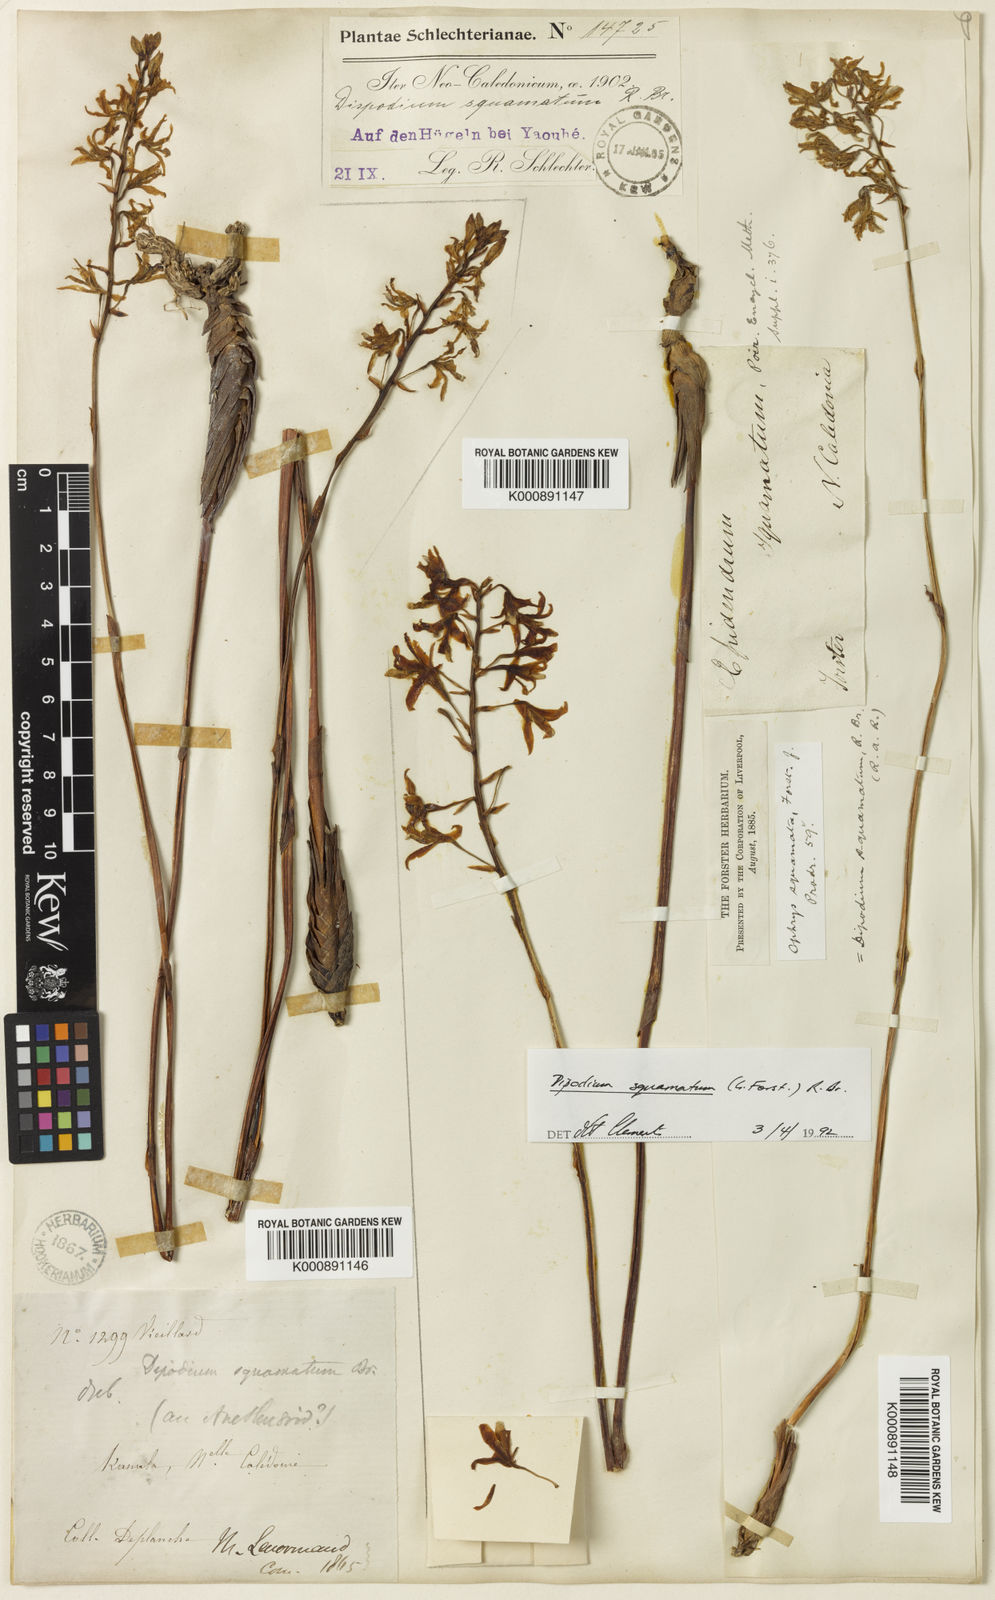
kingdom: Plantae
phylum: Tracheophyta
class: Liliopsida
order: Asparagales
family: Orchidaceae
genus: Dipodium
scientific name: Dipodium squamatum
